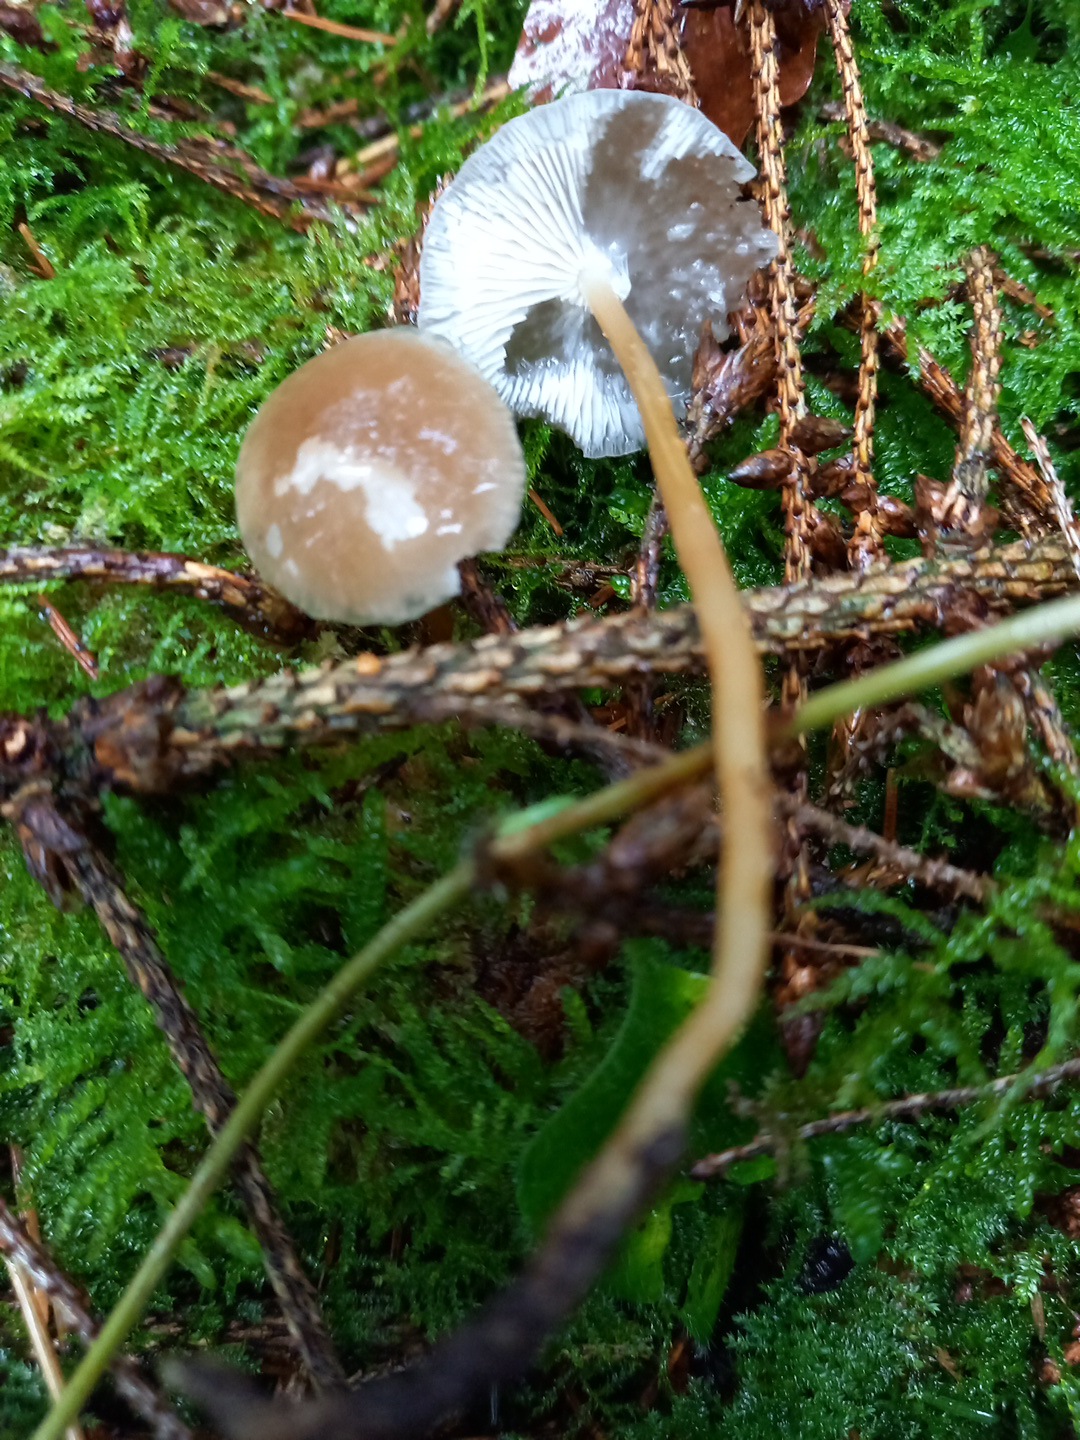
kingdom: Fungi
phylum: Basidiomycota
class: Agaricomycetes
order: Agaricales
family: Physalacriaceae
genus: Strobilurus
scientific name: Strobilurus esculentus
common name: gran-koglehat
